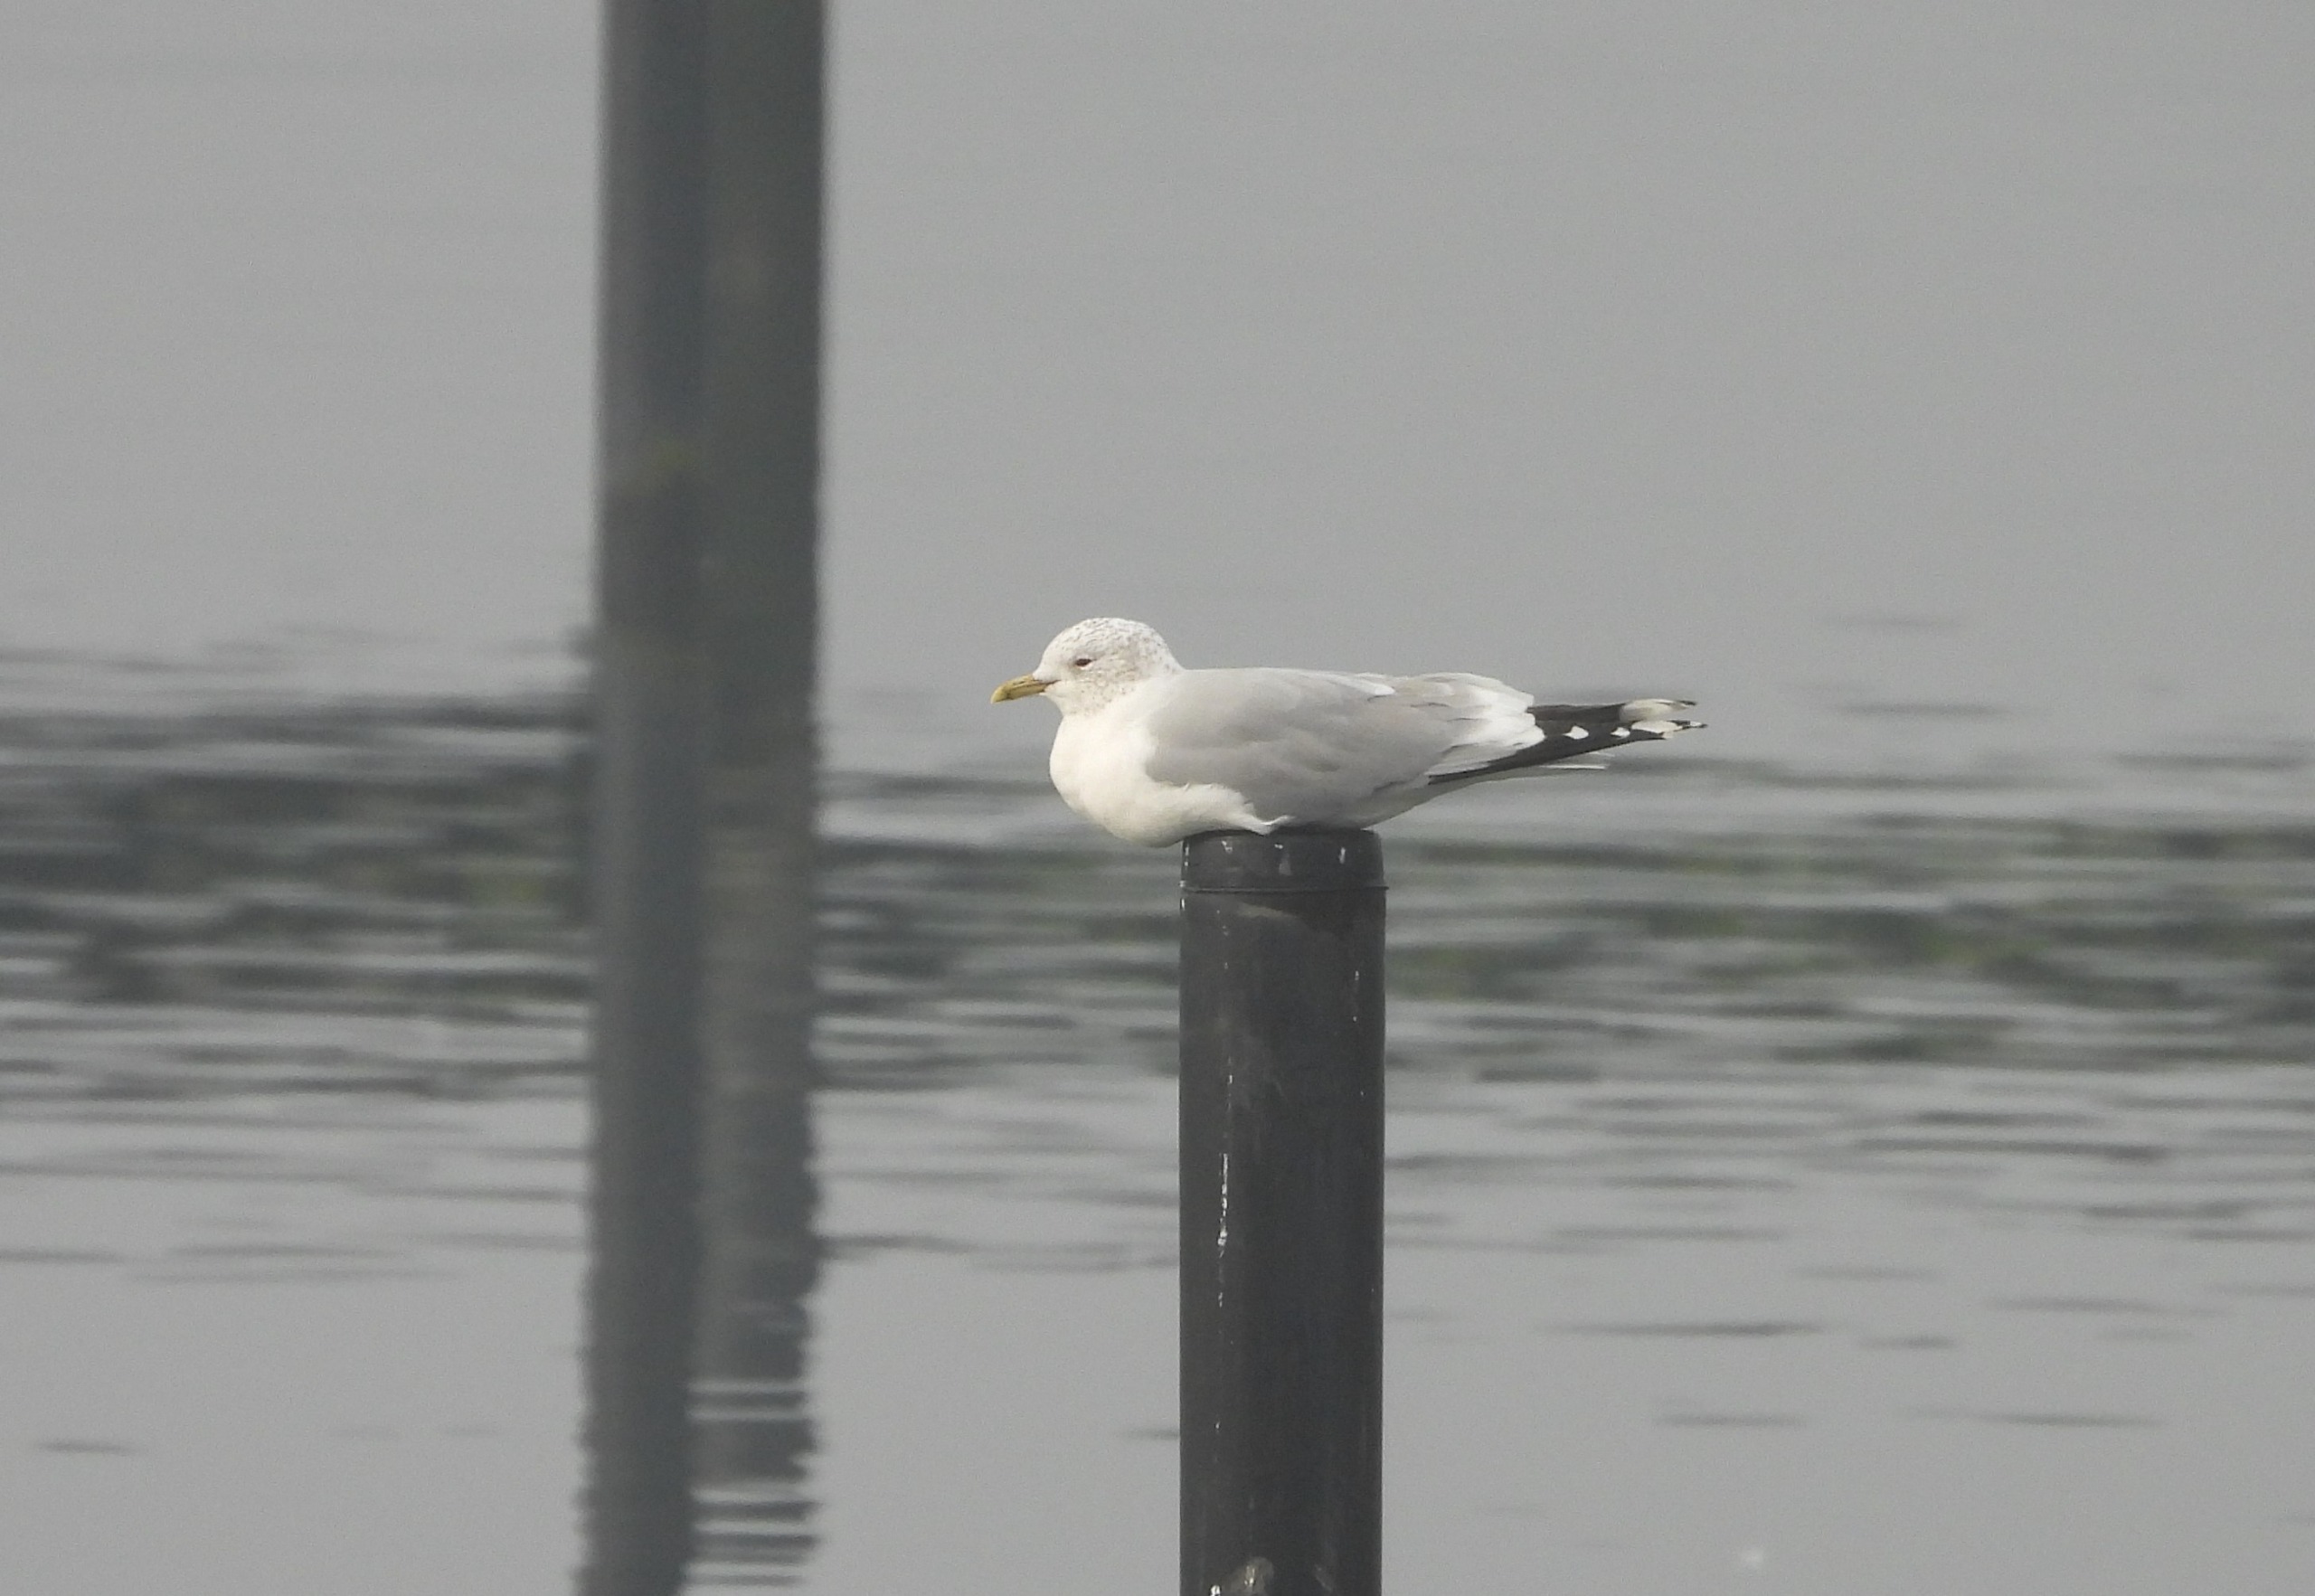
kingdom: Animalia
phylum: Chordata
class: Aves
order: Charadriiformes
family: Laridae
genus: Larus
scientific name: Larus canus
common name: Stormmåge
